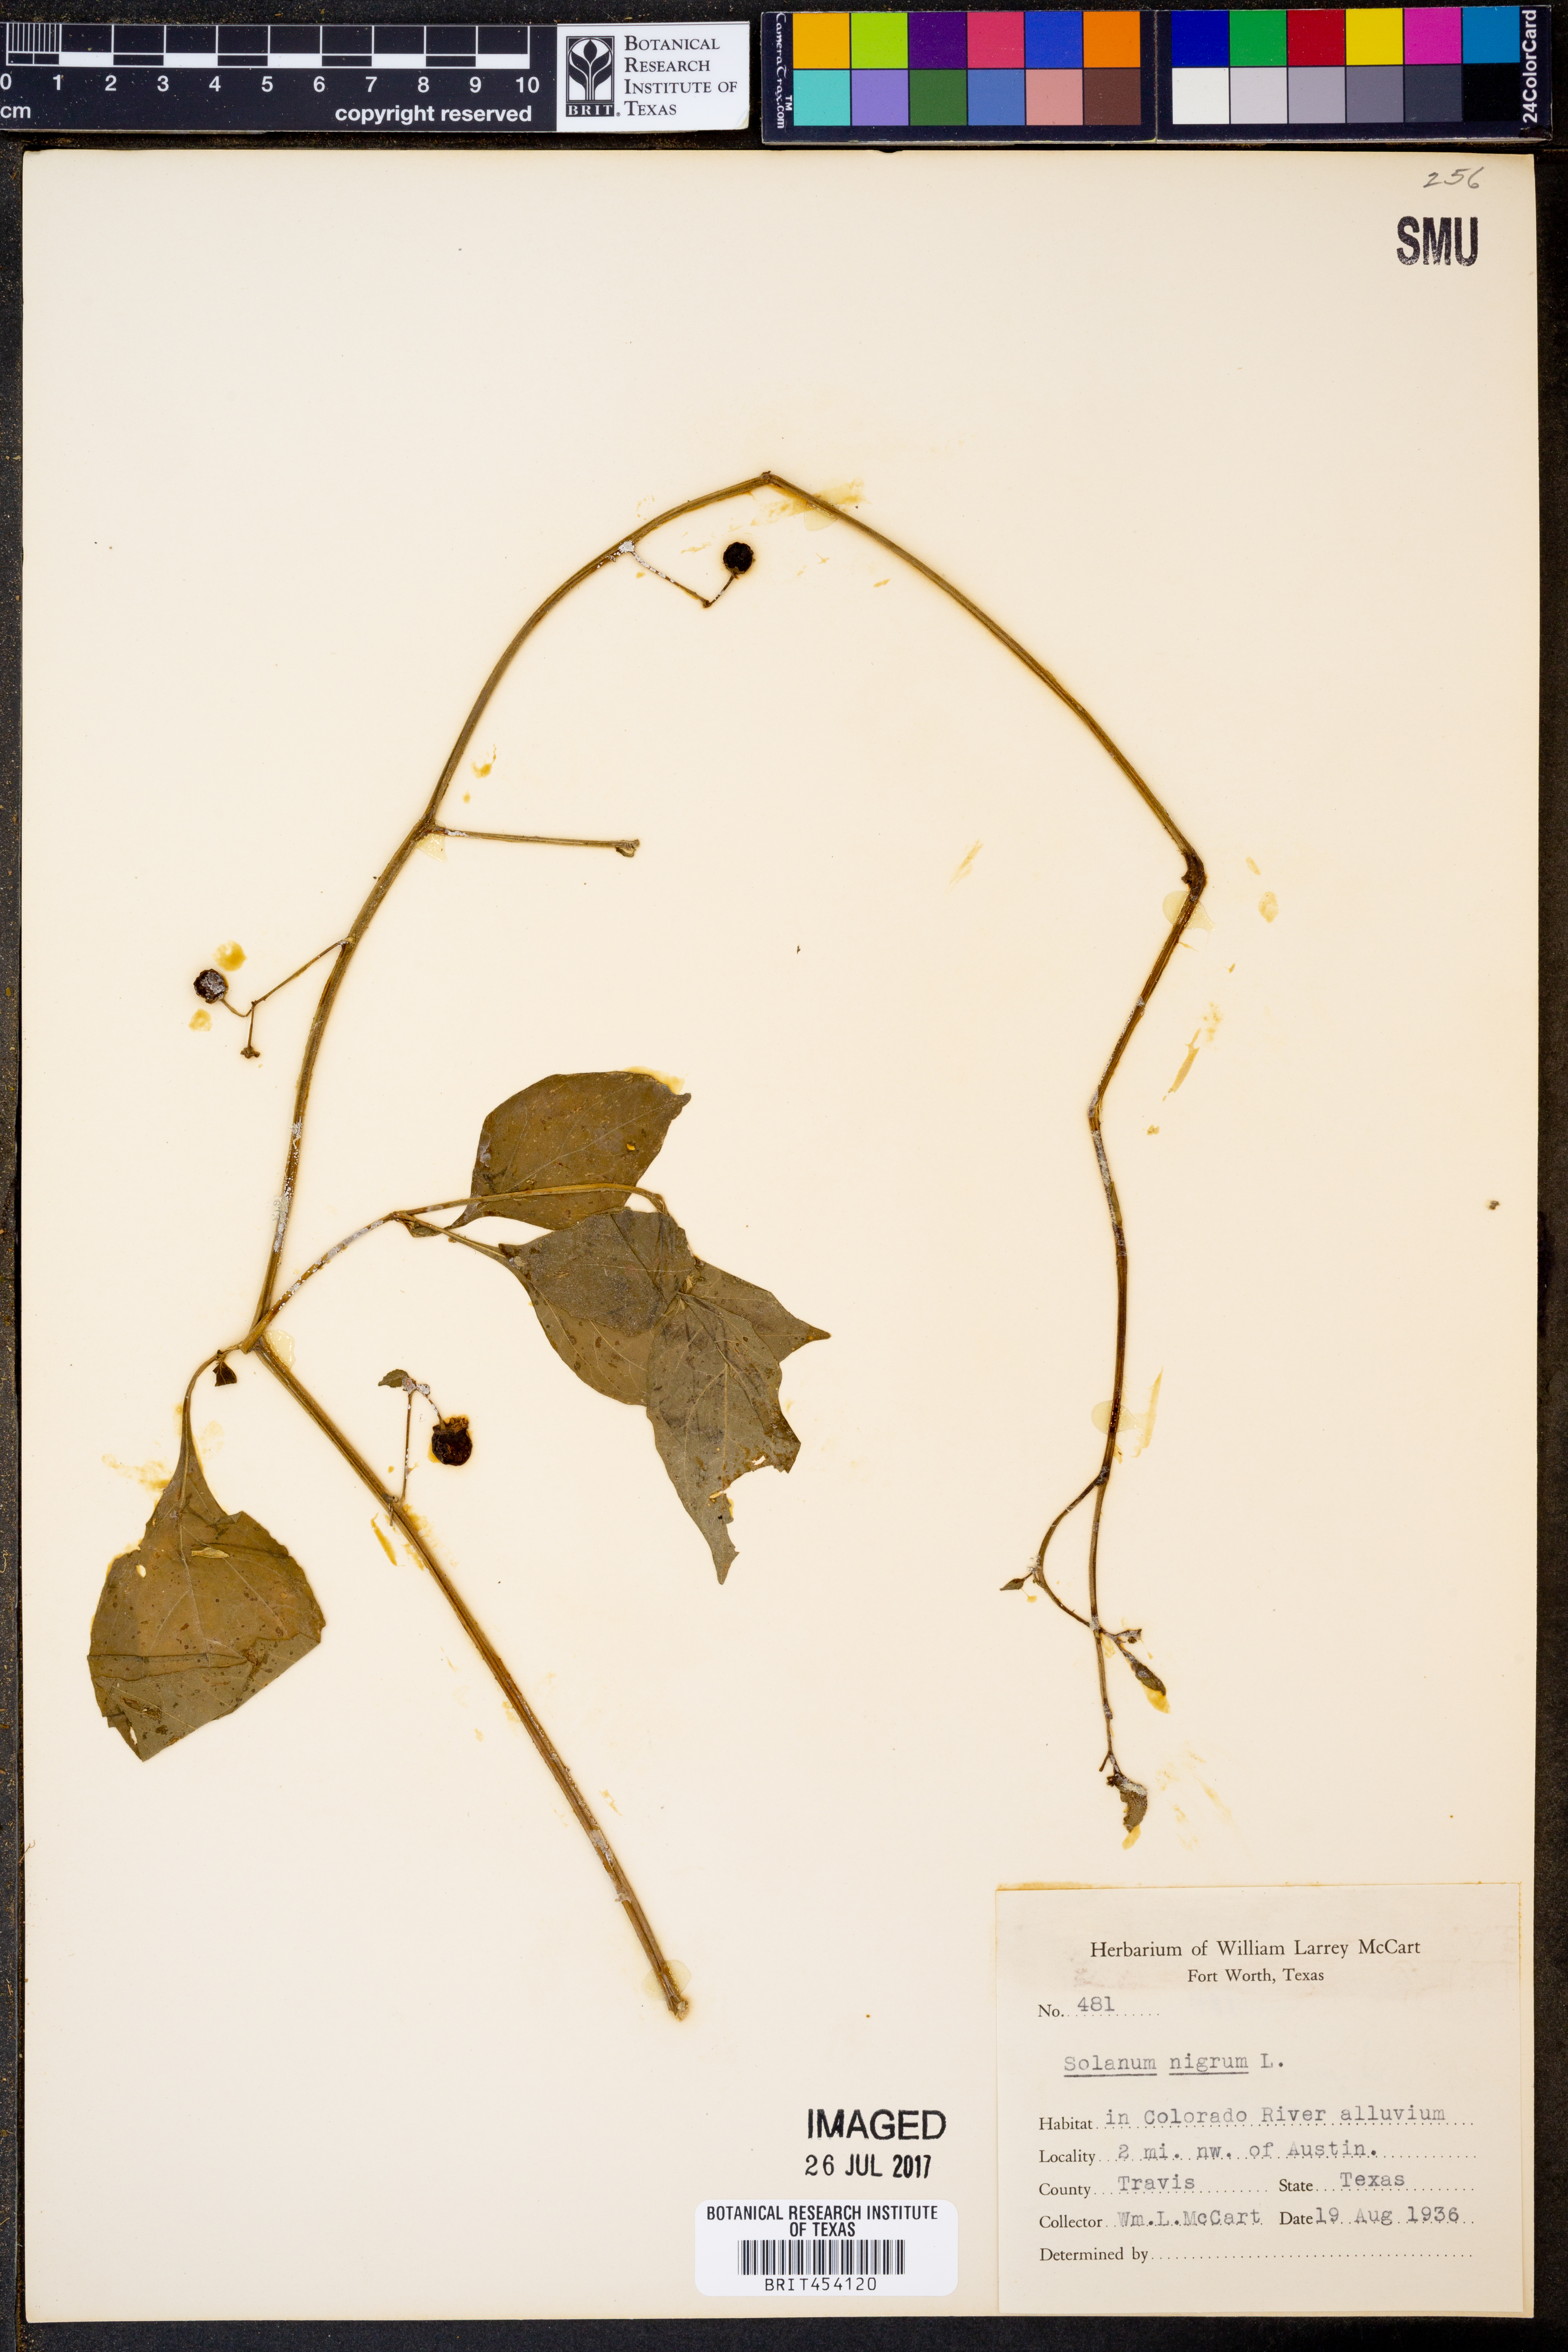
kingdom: Plantae
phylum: Tracheophyta
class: Magnoliopsida
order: Solanales
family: Solanaceae
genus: Solanum
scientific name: Solanum nigrum
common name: Black nightshade
